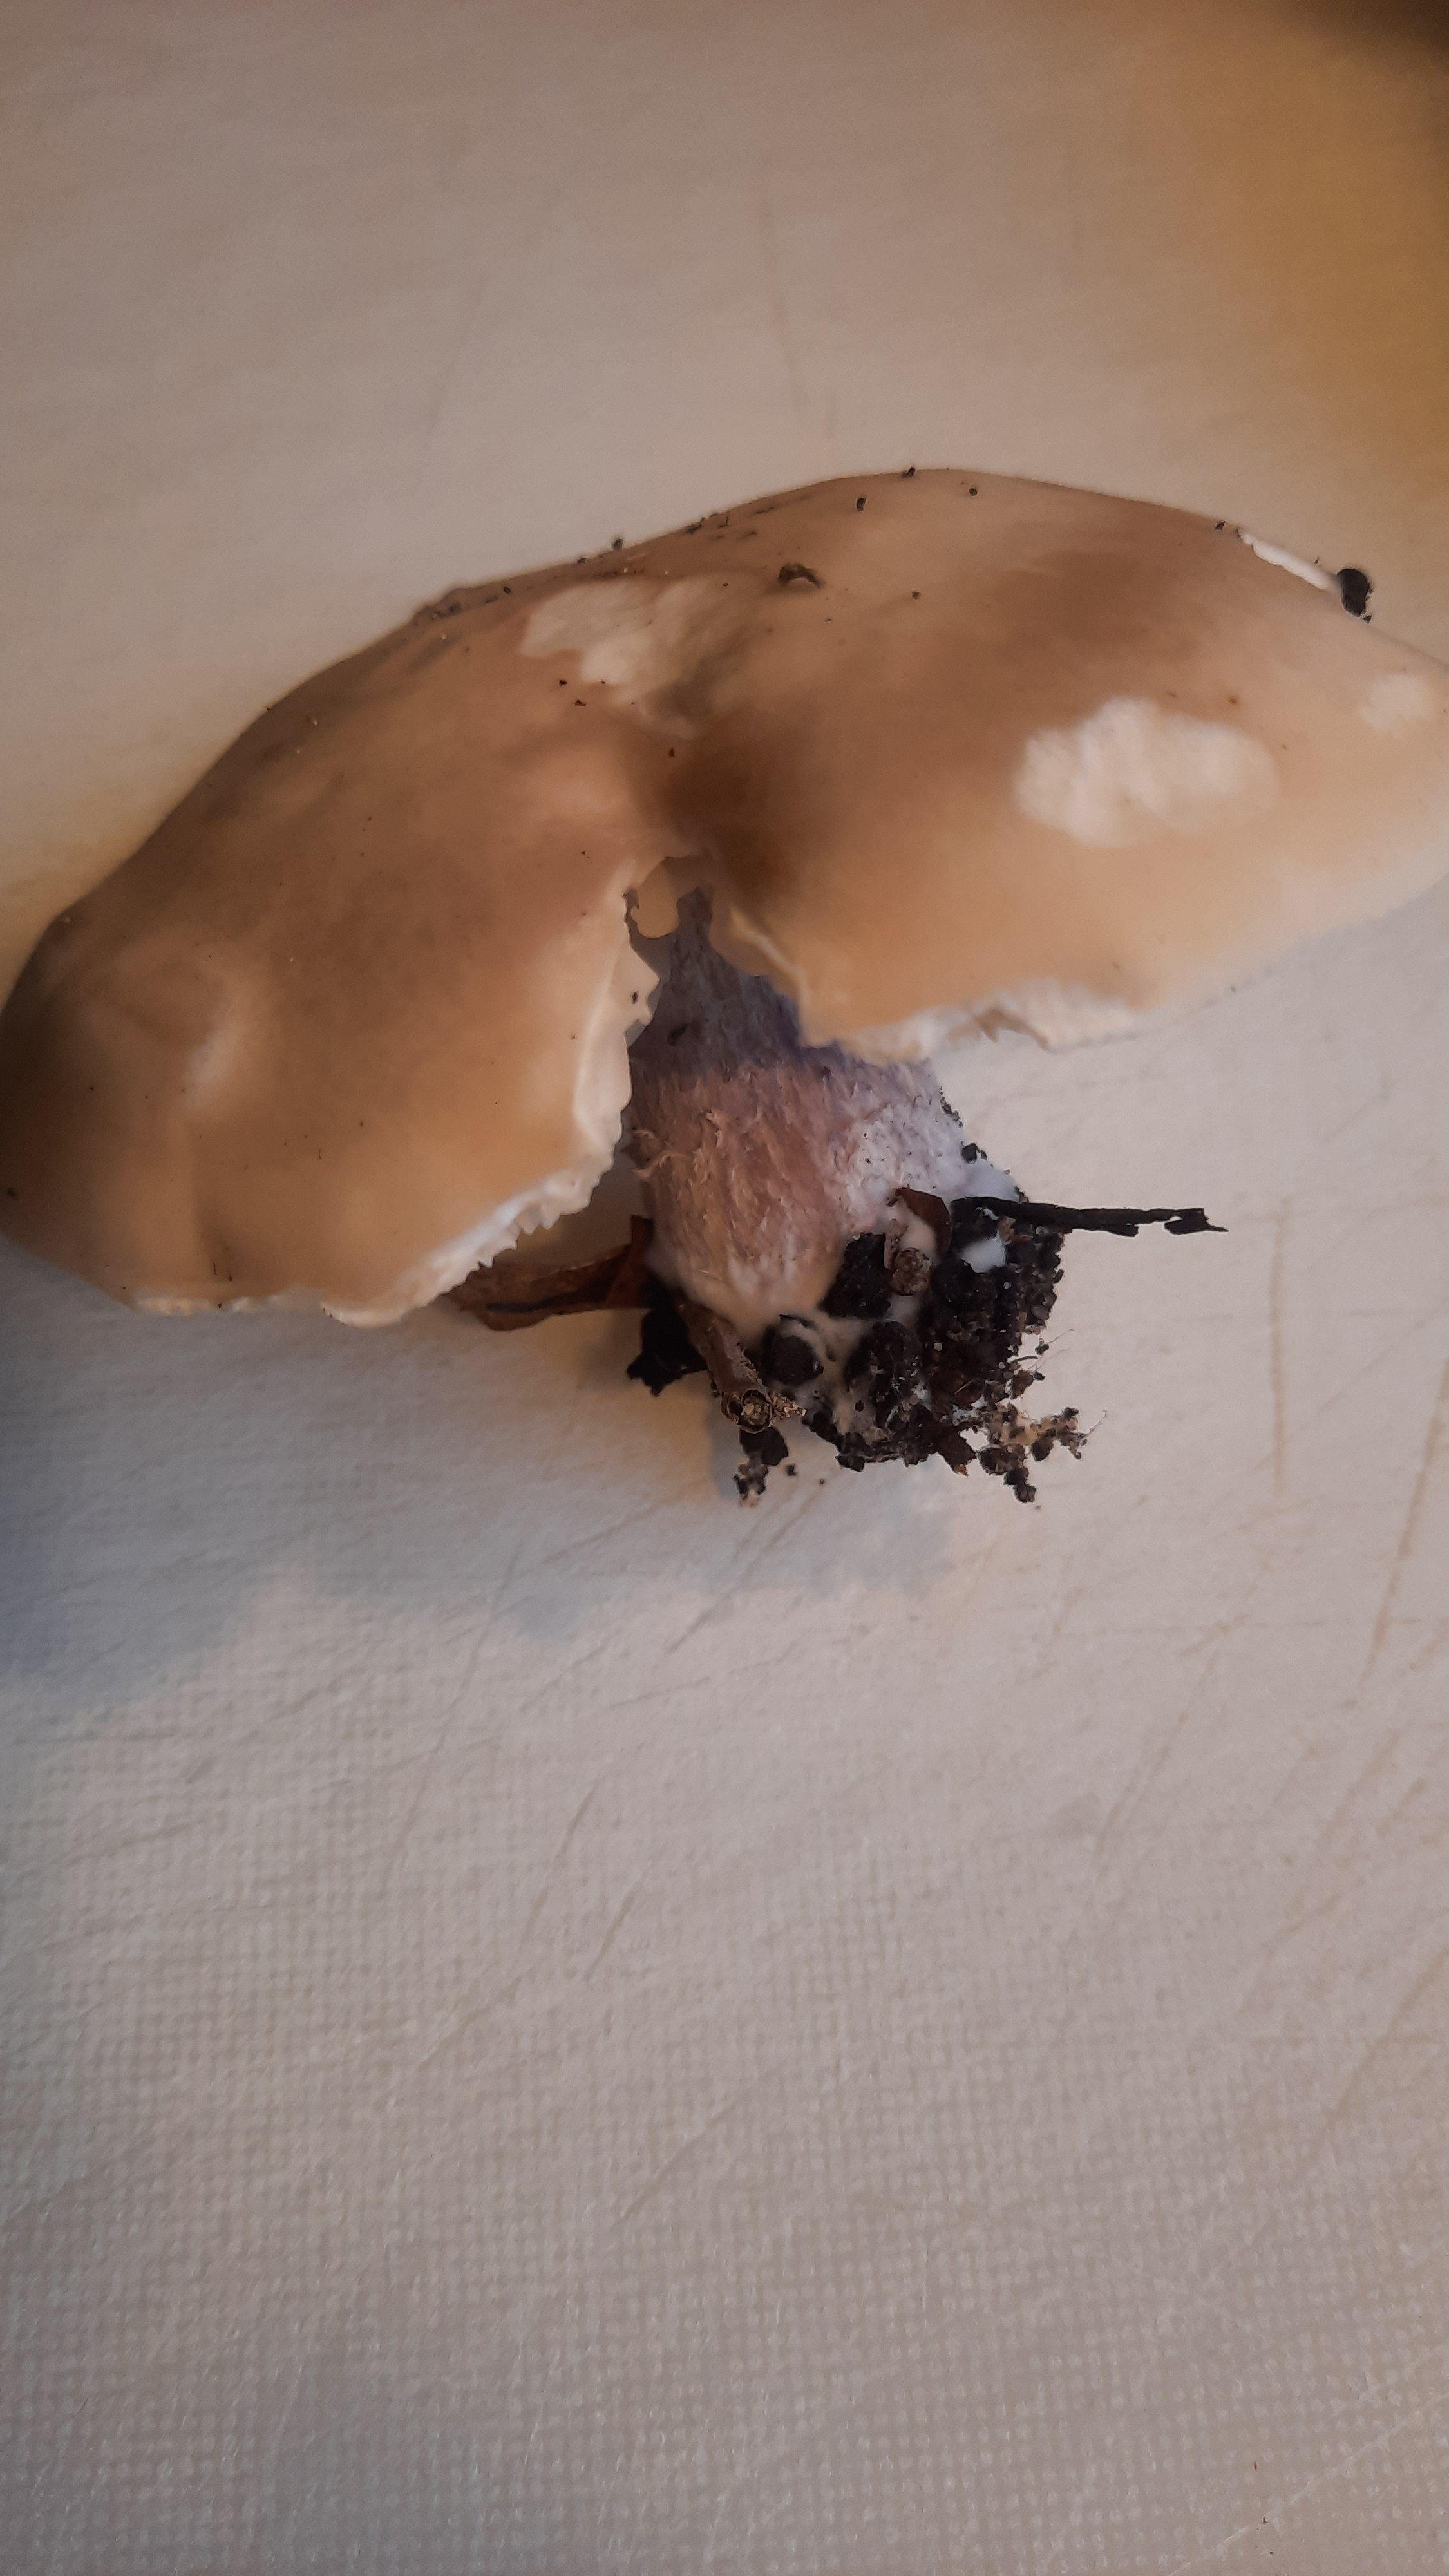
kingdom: Fungi
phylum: Basidiomycota
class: Agaricomycetes
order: Agaricales
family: Tricholomataceae
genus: Lepista
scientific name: Lepista personata
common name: bleg hekseringshat
